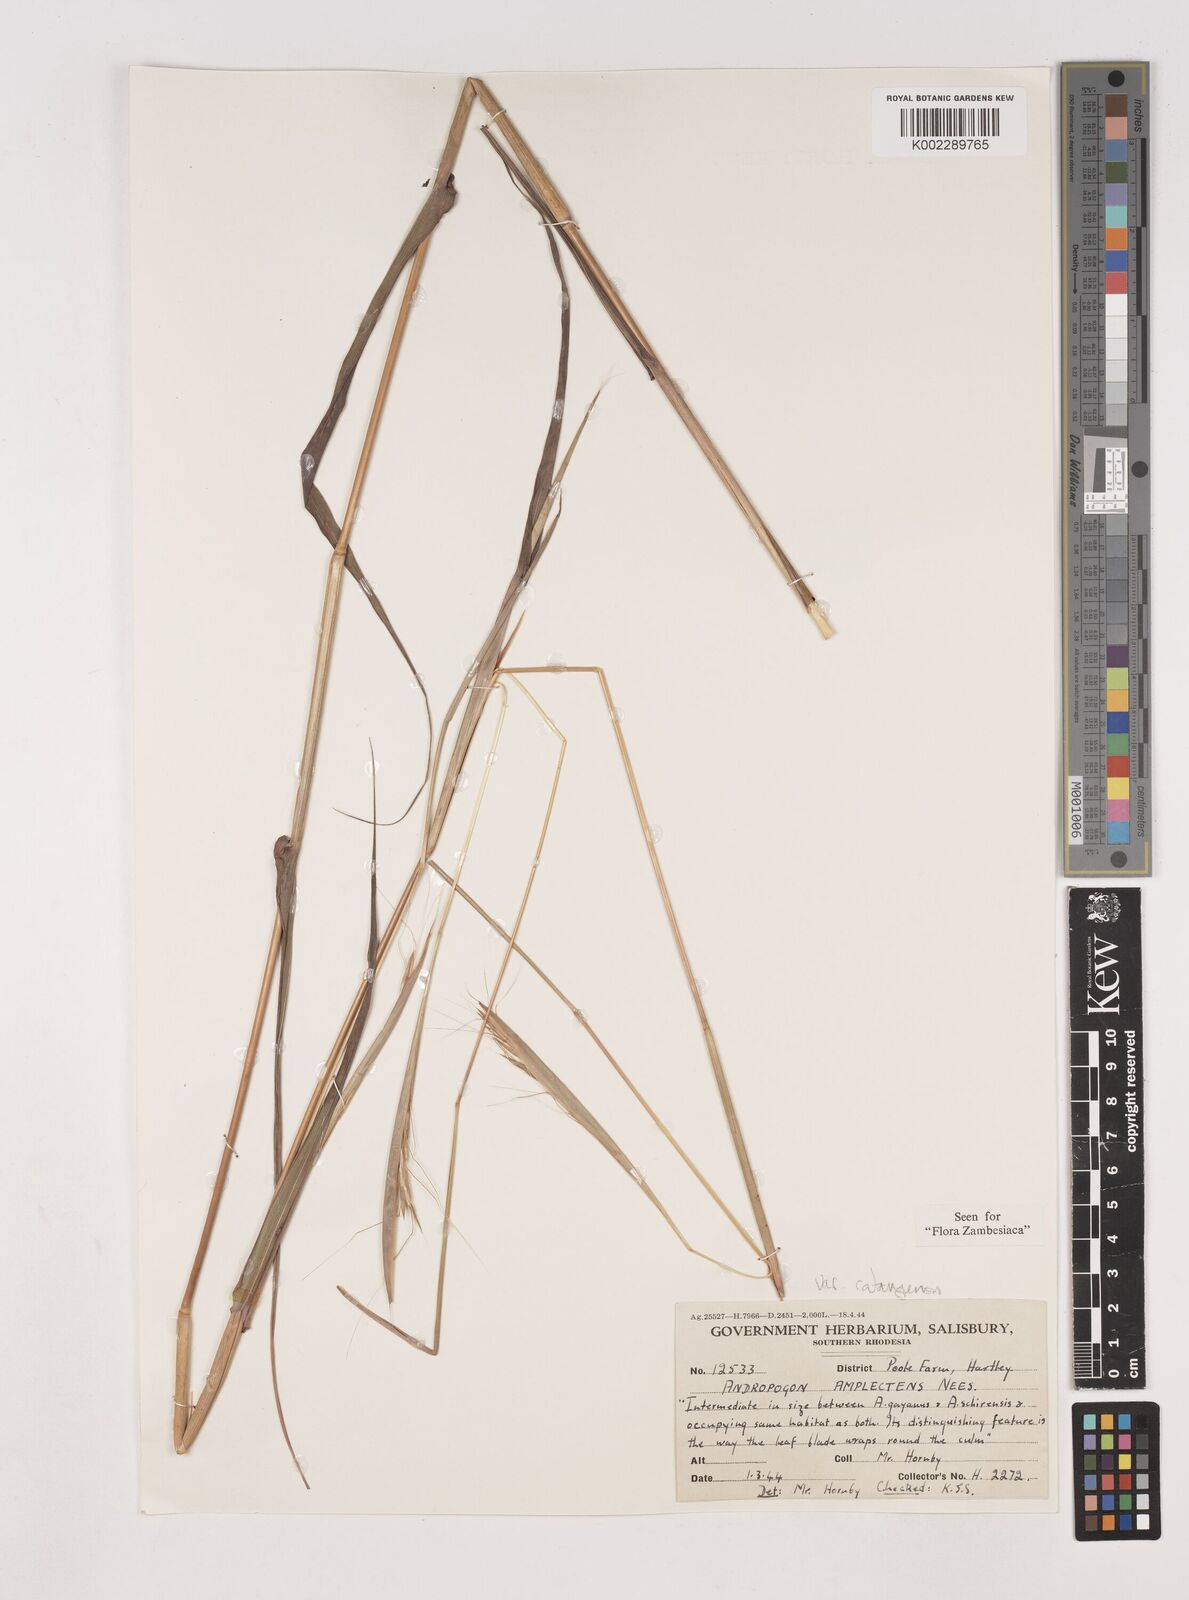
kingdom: Plantae
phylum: Tracheophyta
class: Liliopsida
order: Poales
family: Poaceae
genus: Diheteropogon
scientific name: Diheteropogon amplectens
